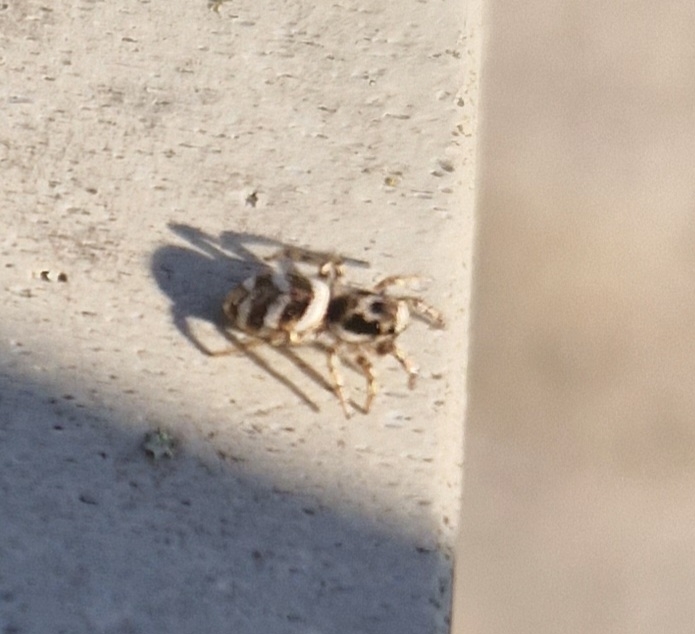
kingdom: Animalia
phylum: Arthropoda
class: Arachnida
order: Araneae
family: Salticidae
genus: Salticus
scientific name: Salticus scenicus
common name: Almindelig zebraedderkop
